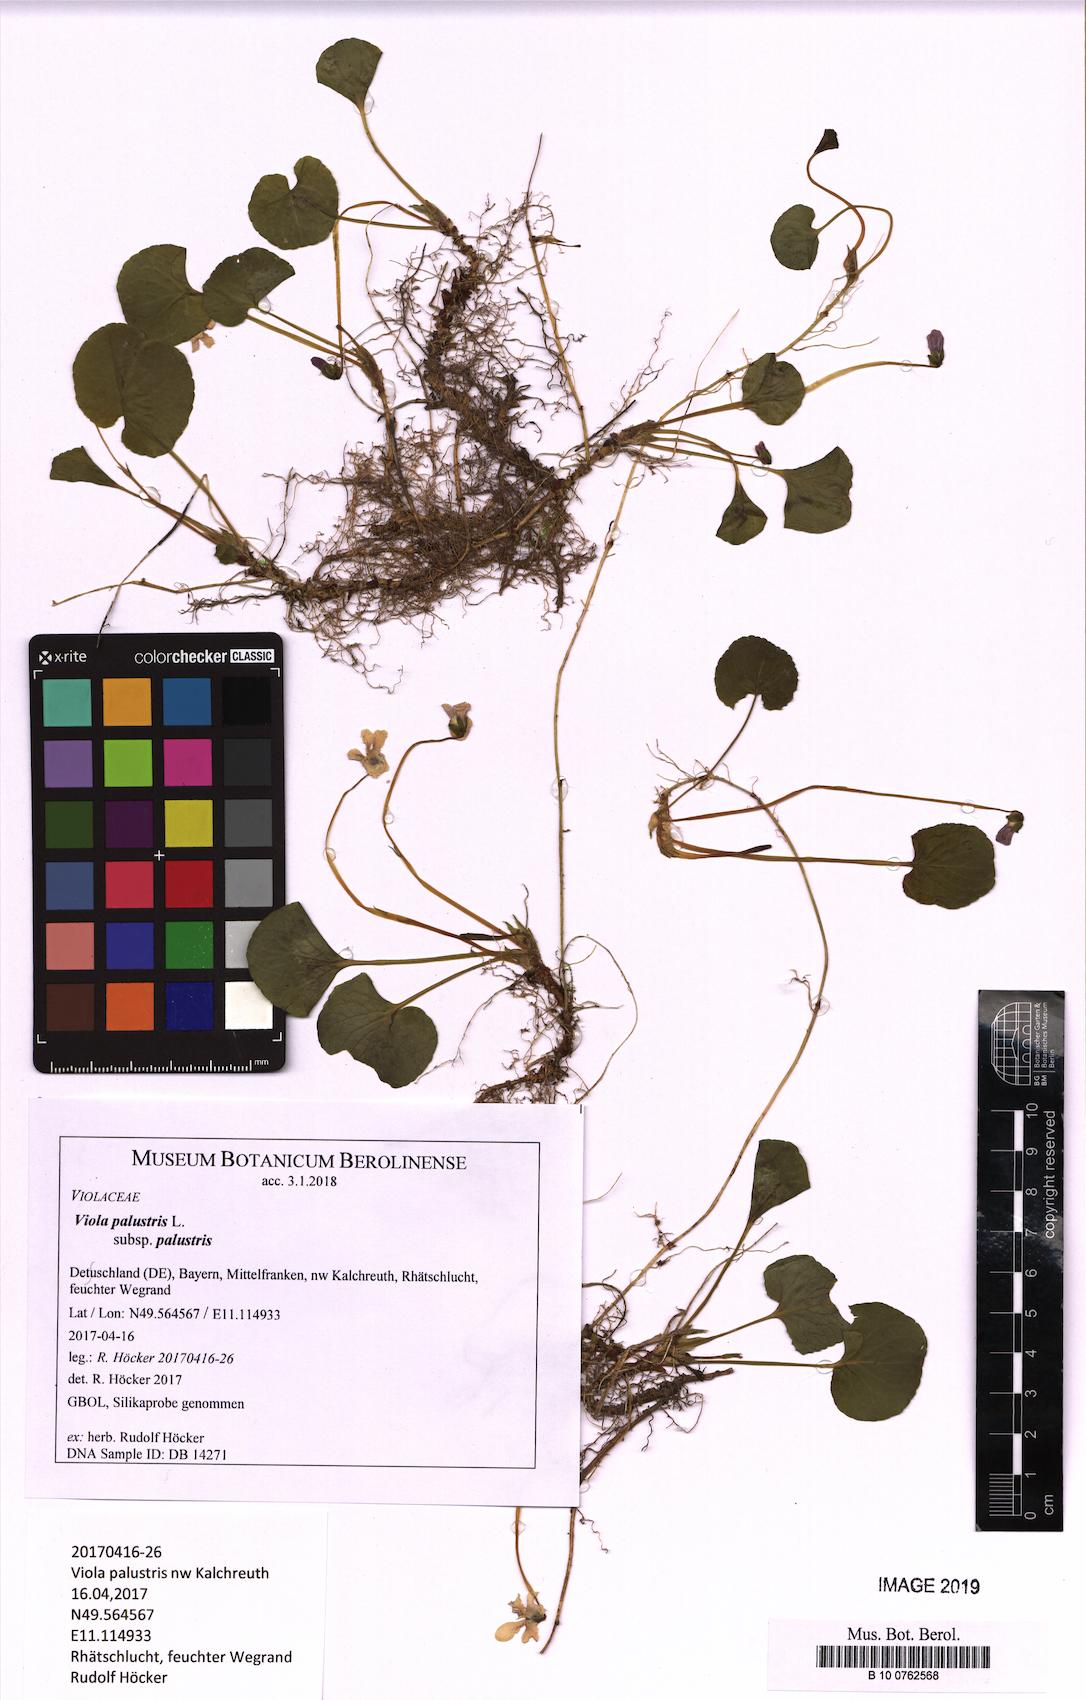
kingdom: Plantae
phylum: Tracheophyta
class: Magnoliopsida
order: Malpighiales
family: Violaceae
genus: Viola
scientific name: Viola palustris
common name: Marsh violet
